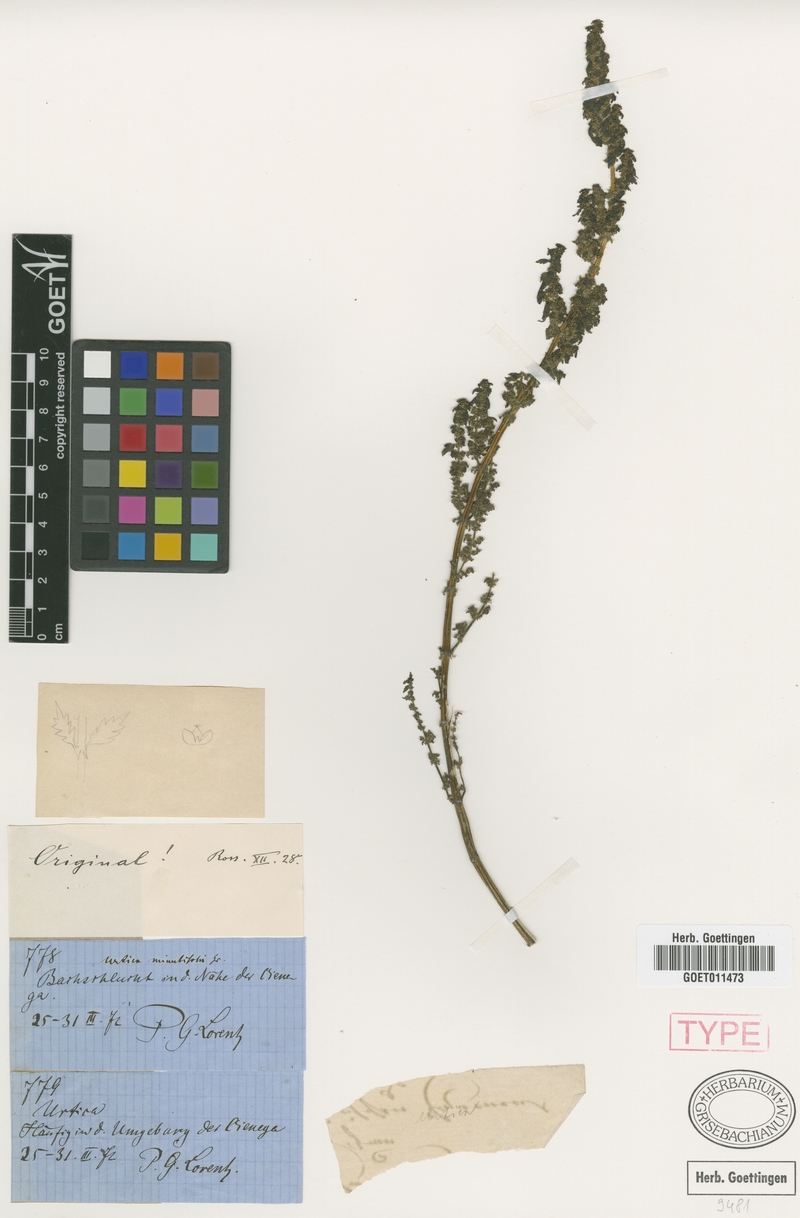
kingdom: Plantae
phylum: Tracheophyta
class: Magnoliopsida
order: Rosales
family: Urticaceae
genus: Urtica
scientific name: Urtica minutifolia
